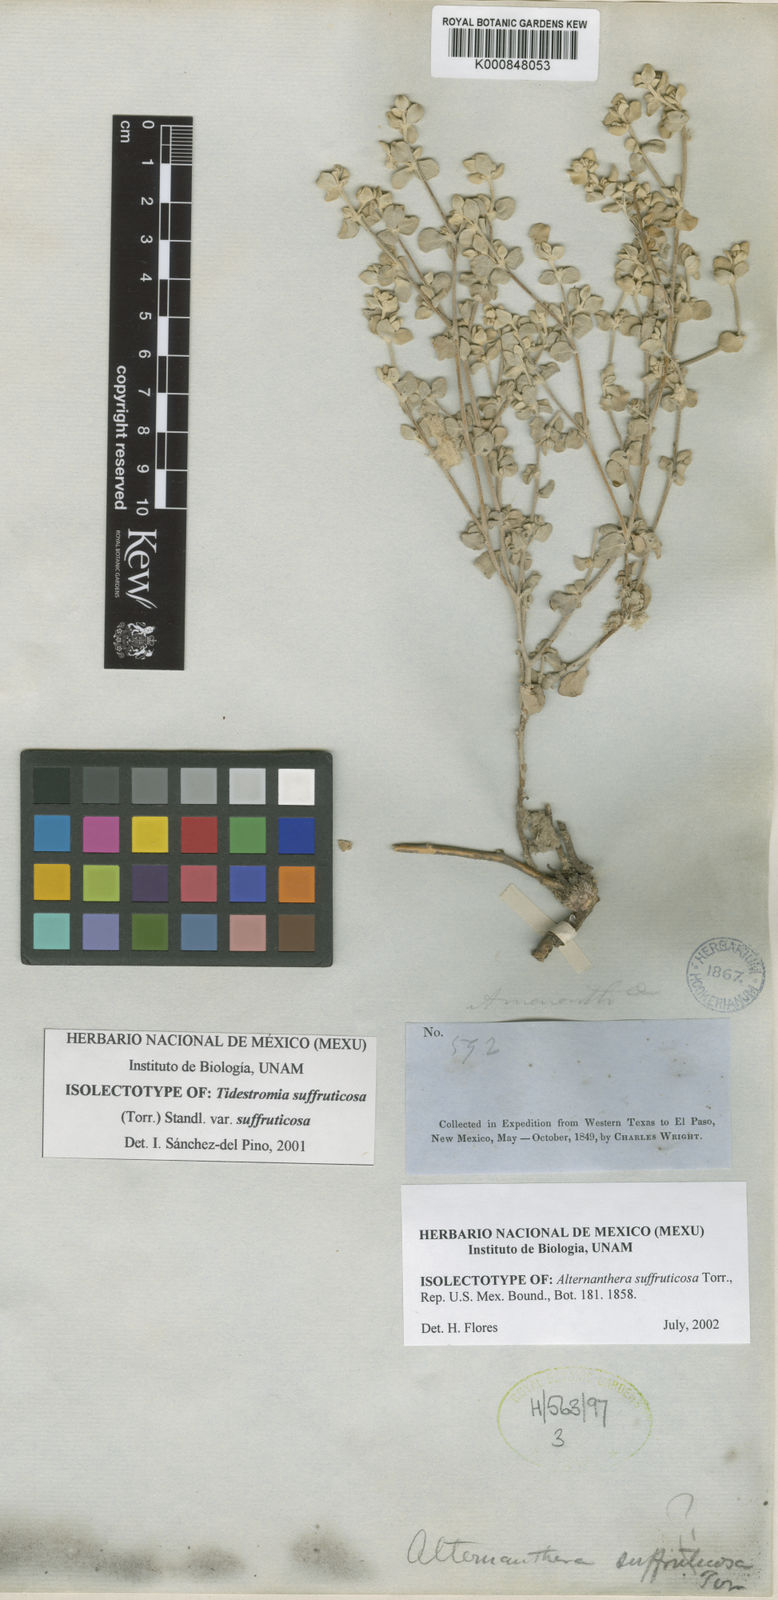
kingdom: Plantae
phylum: Tracheophyta
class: Magnoliopsida
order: Caryophyllales
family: Amaranthaceae
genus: Tidestromia
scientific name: Tidestromia suffruticosa
